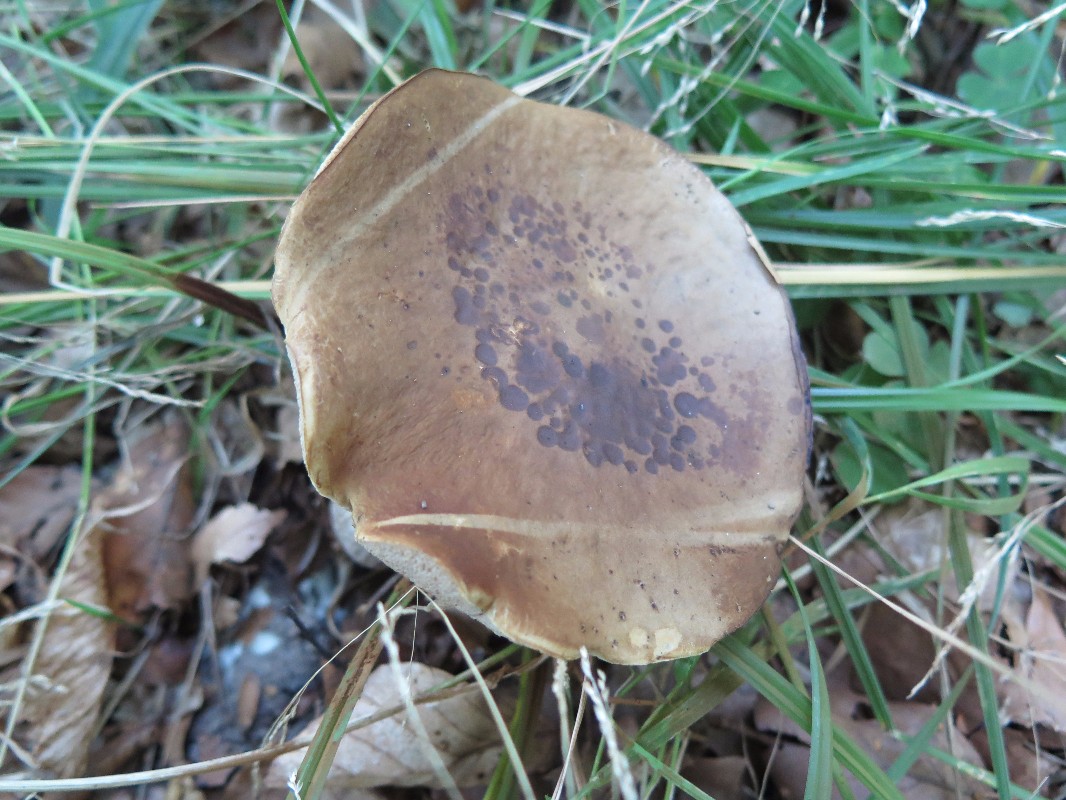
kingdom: Fungi
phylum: Basidiomycota
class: Agaricomycetes
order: Boletales
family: Boletaceae
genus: Leccinellum
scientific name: Leccinellum pseudoscabrum
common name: avnbøg-skælrørhat
